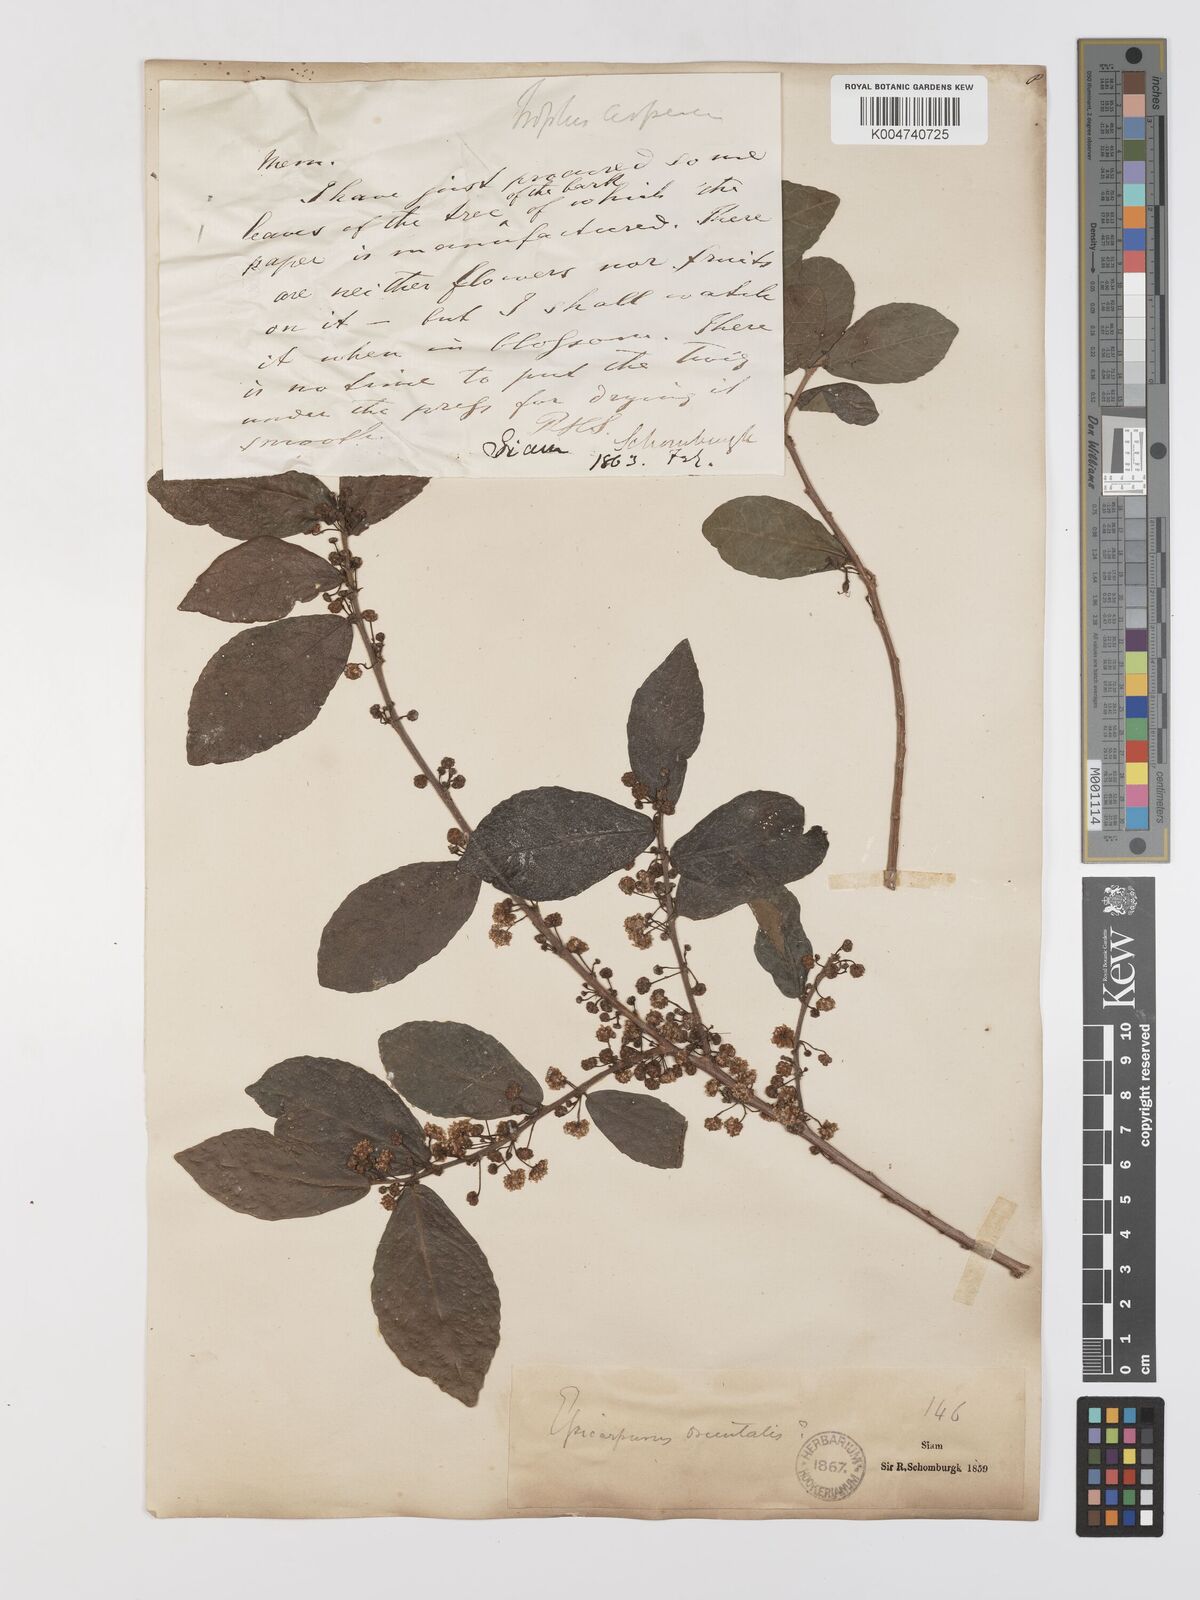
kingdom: Plantae
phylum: Tracheophyta
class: Magnoliopsida
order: Rosales
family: Moraceae
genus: Streblus
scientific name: Streblus asper
